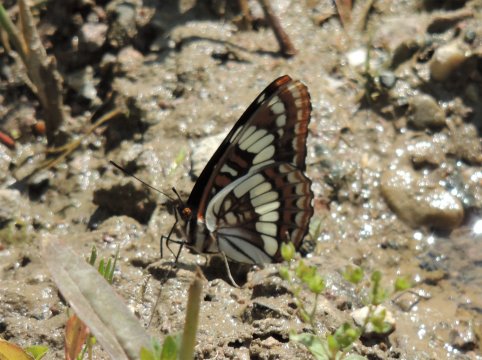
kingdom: Animalia
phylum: Arthropoda
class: Insecta
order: Lepidoptera
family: Nymphalidae
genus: Limenitis
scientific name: Limenitis lorquini
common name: Lorquin's Admiral
